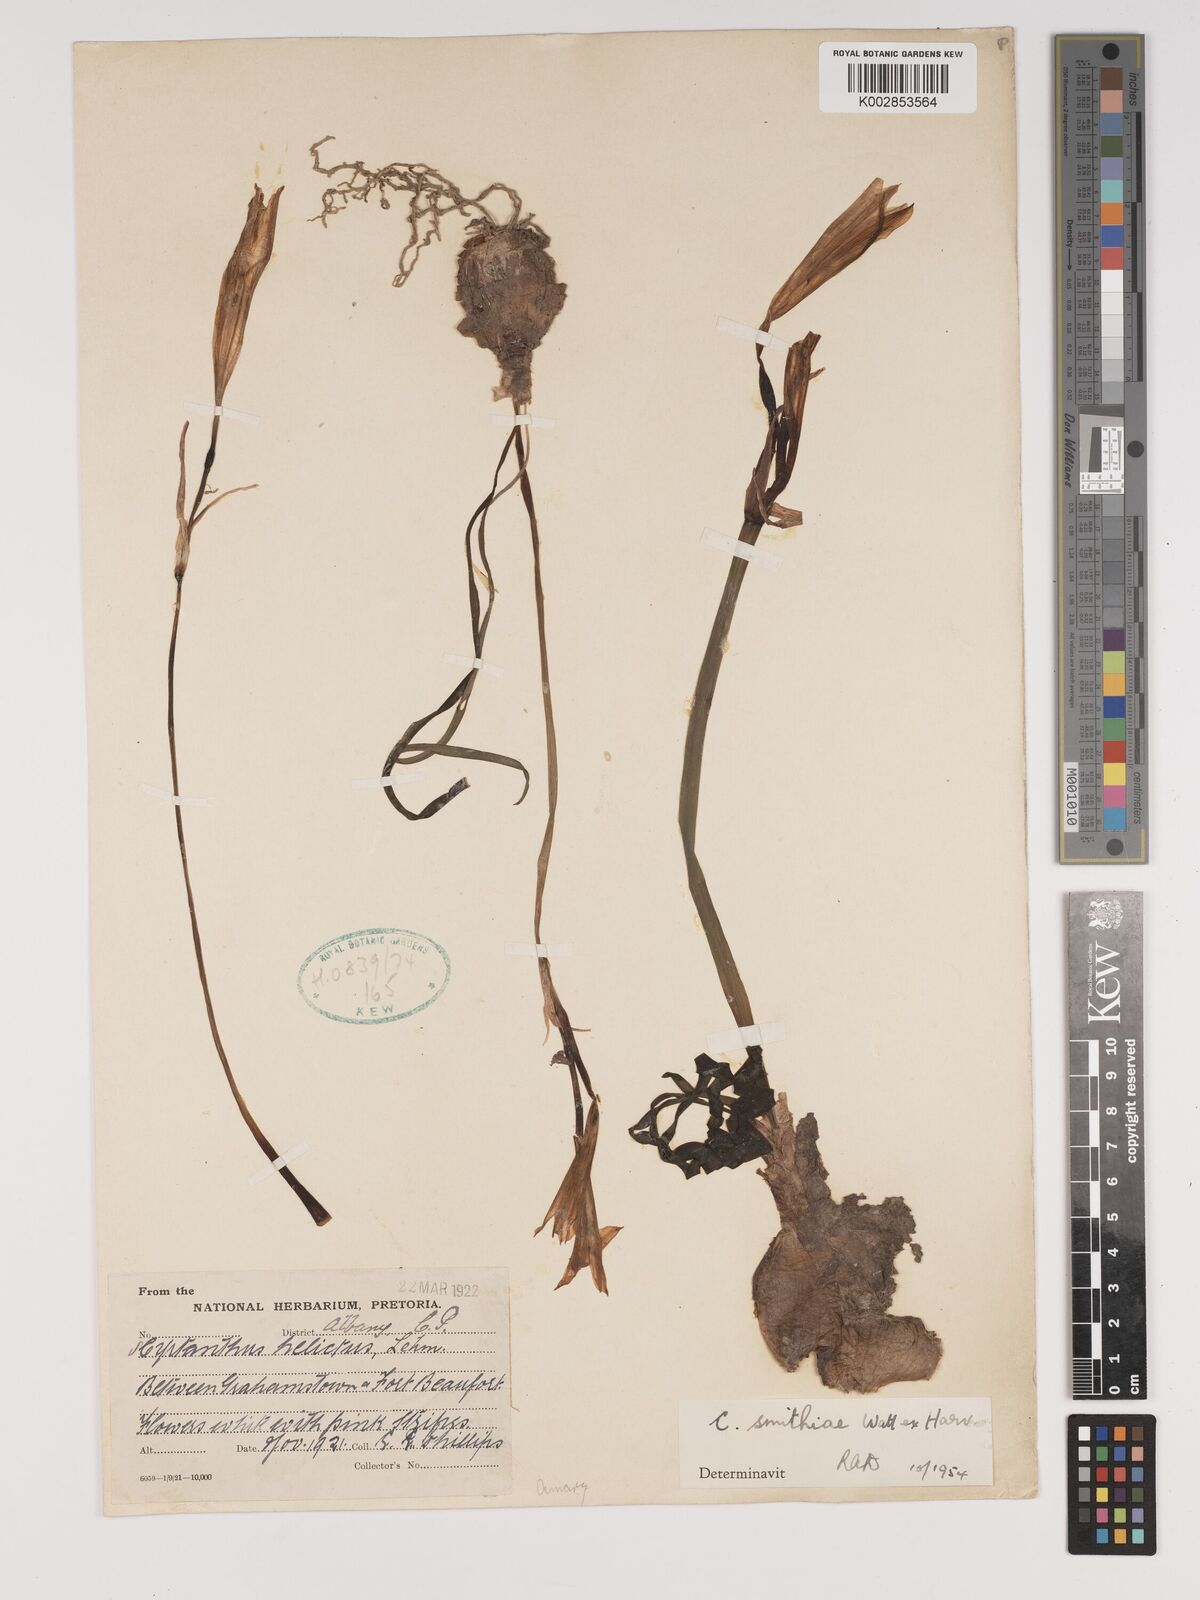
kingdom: Plantae
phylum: Tracheophyta
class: Liliopsida
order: Asparagales
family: Amaryllidaceae
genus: Cyrtanthus
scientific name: Cyrtanthus smithiae
